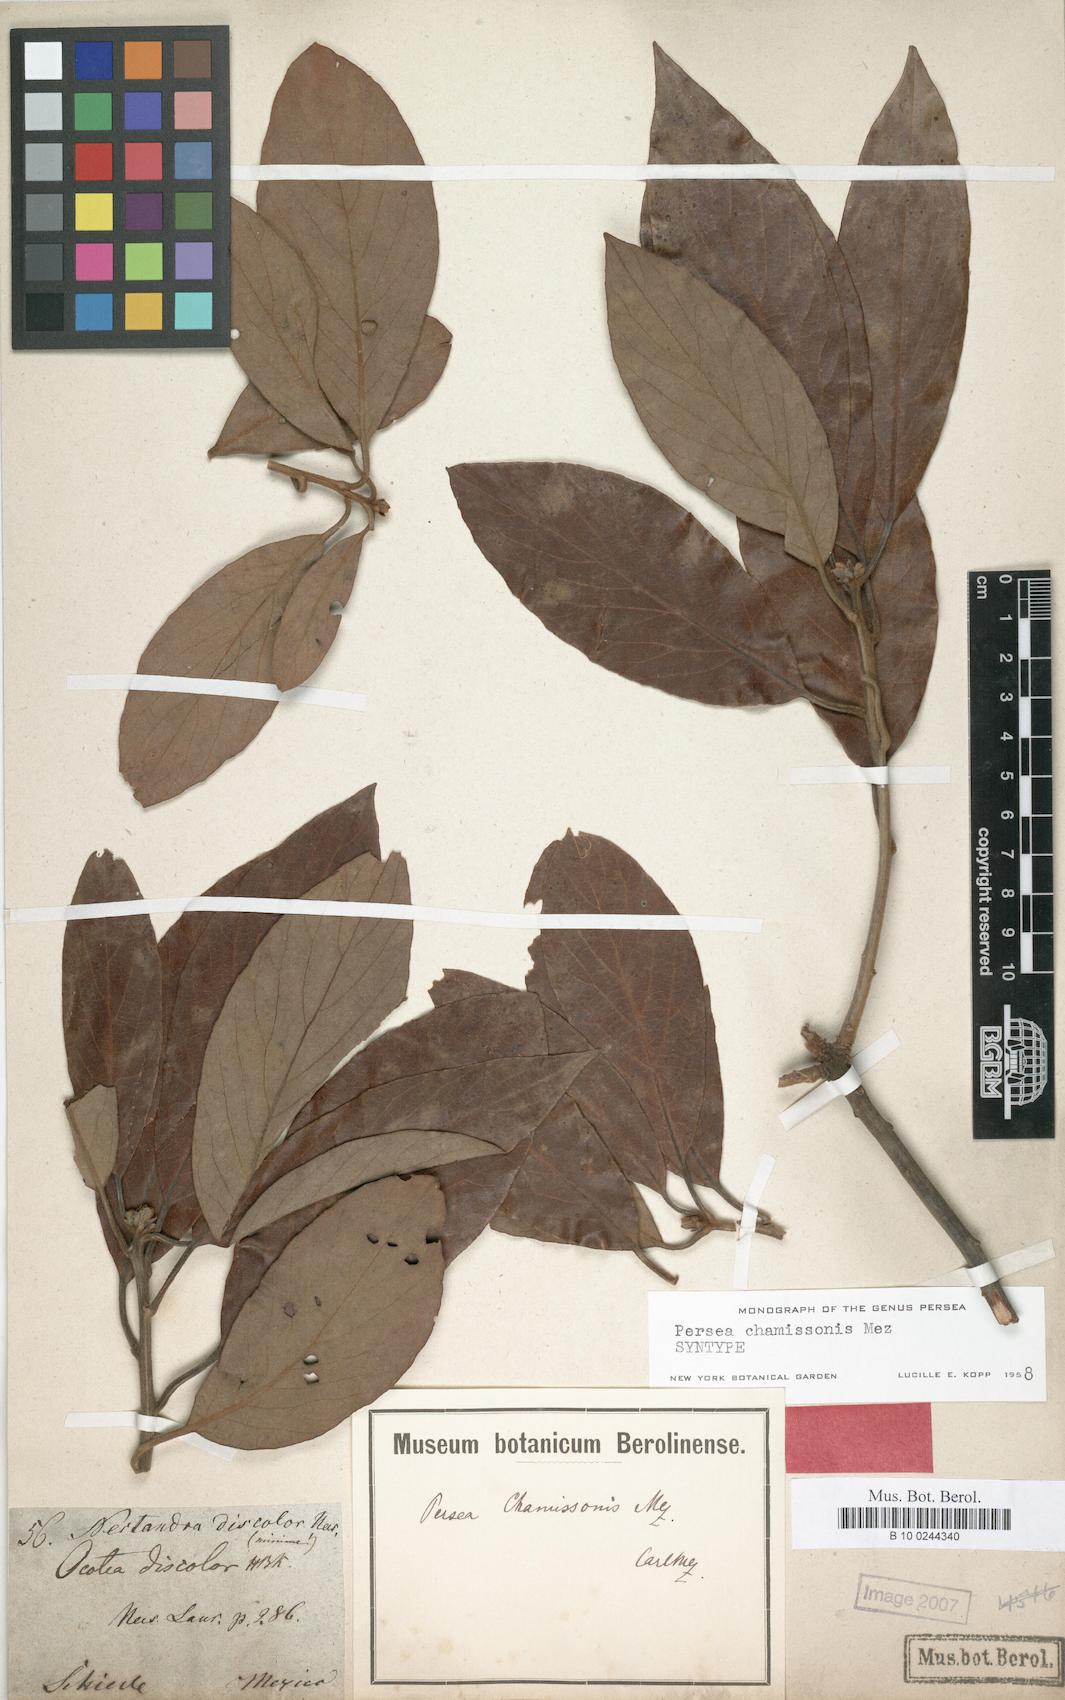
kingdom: Plantae
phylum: Tracheophyta
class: Magnoliopsida
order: Laurales
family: Lauraceae
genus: Persea
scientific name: Persea chamissonis
